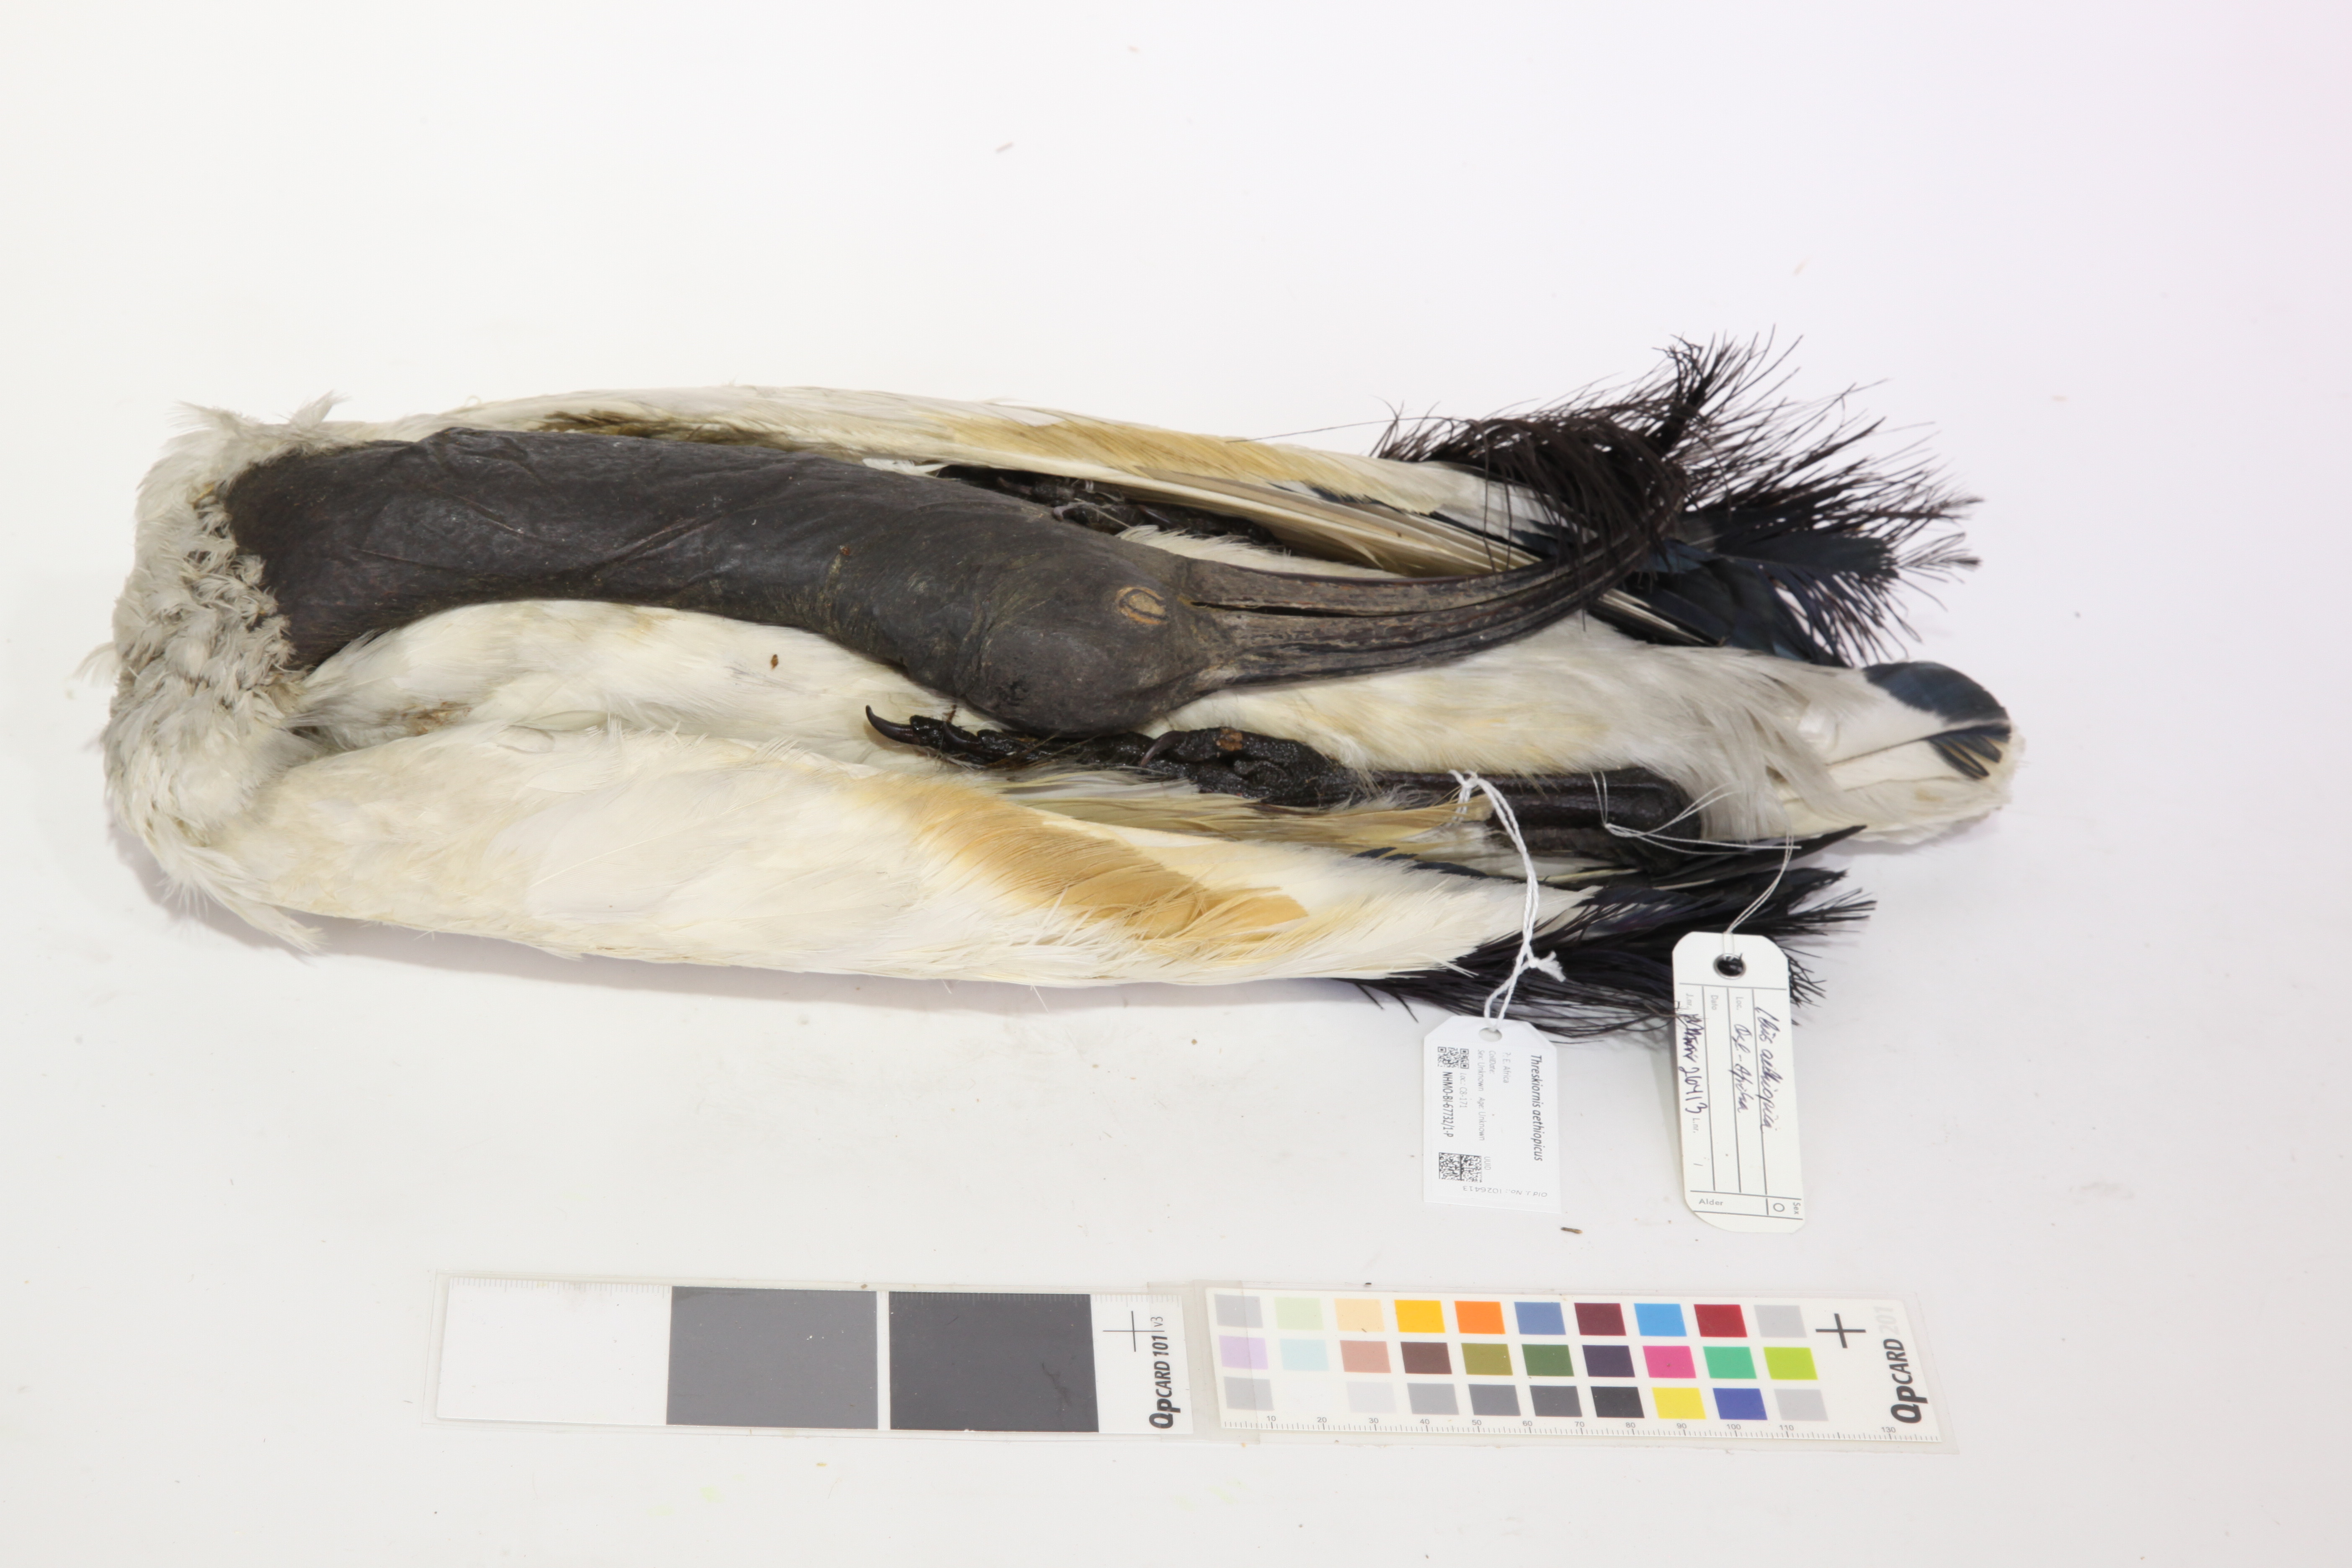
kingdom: Animalia
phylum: Chordata
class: Aves
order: Pelecaniformes
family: Threskiornithidae
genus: Threskiornis
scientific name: Threskiornis aethiopicus
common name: Sacred ibis
